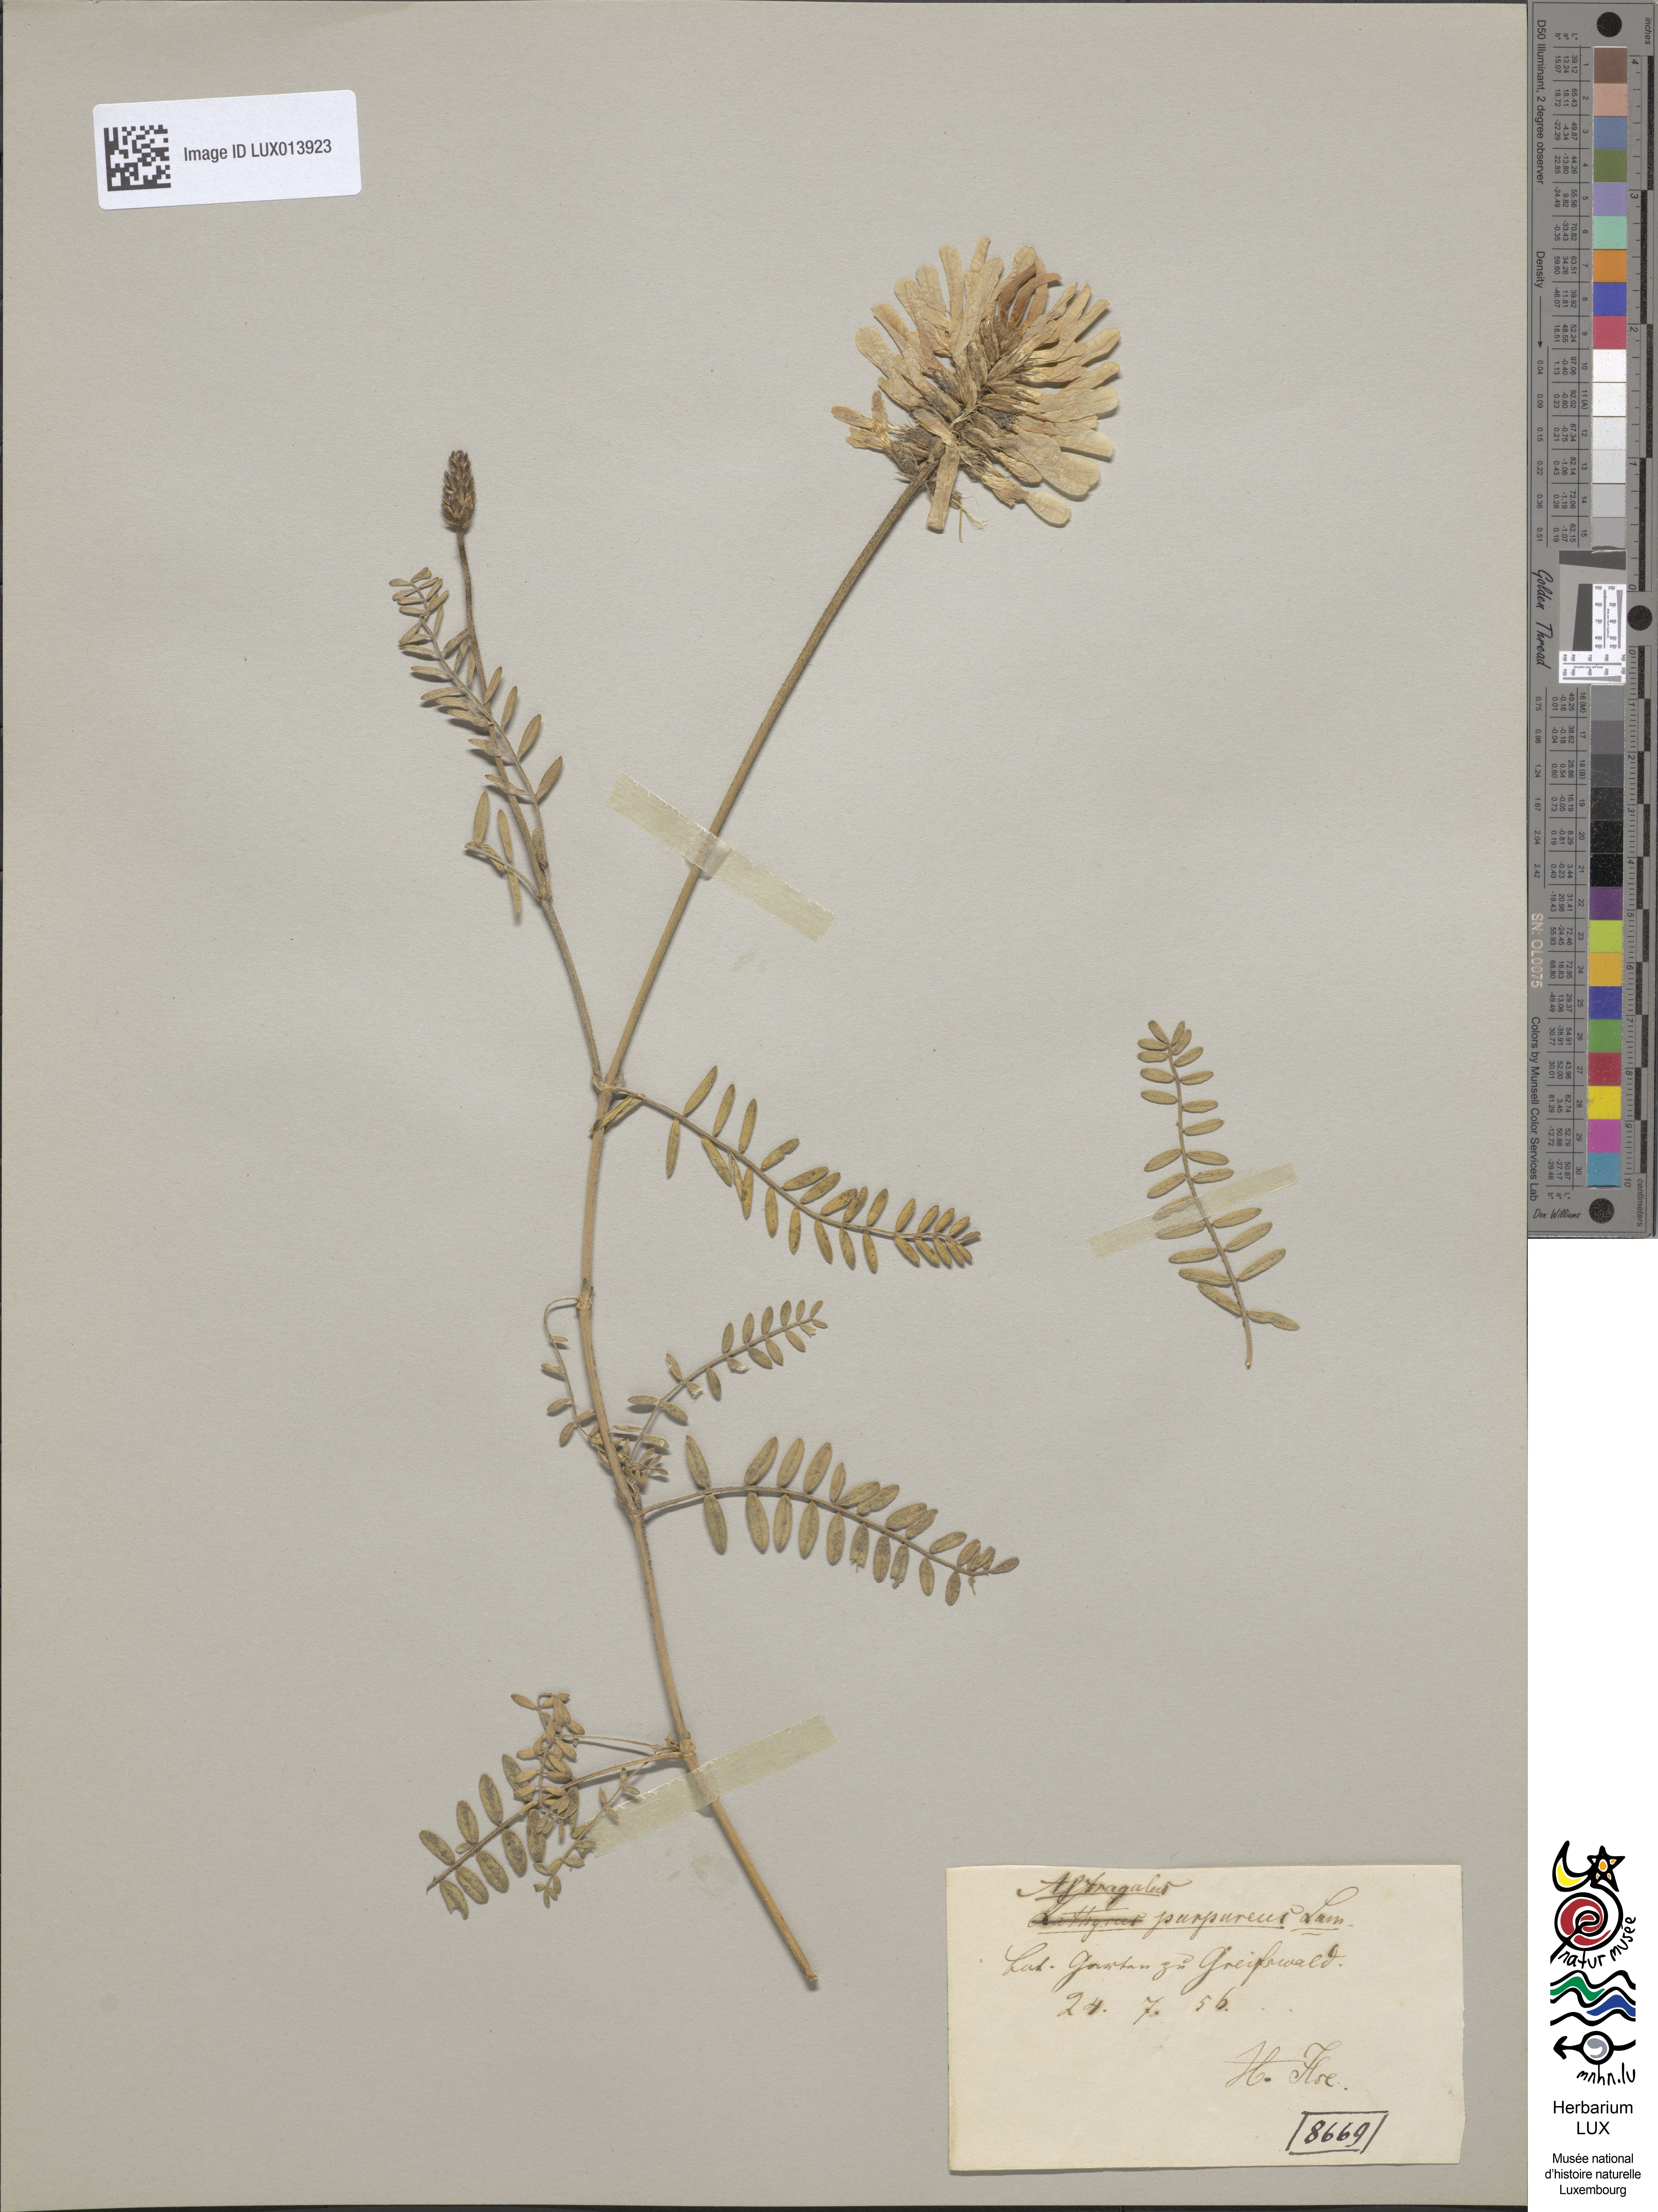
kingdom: Plantae
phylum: Tracheophyta
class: Magnoliopsida
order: Fabales
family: Fabaceae
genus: Astragalus
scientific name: Astragalus hypoglottis
